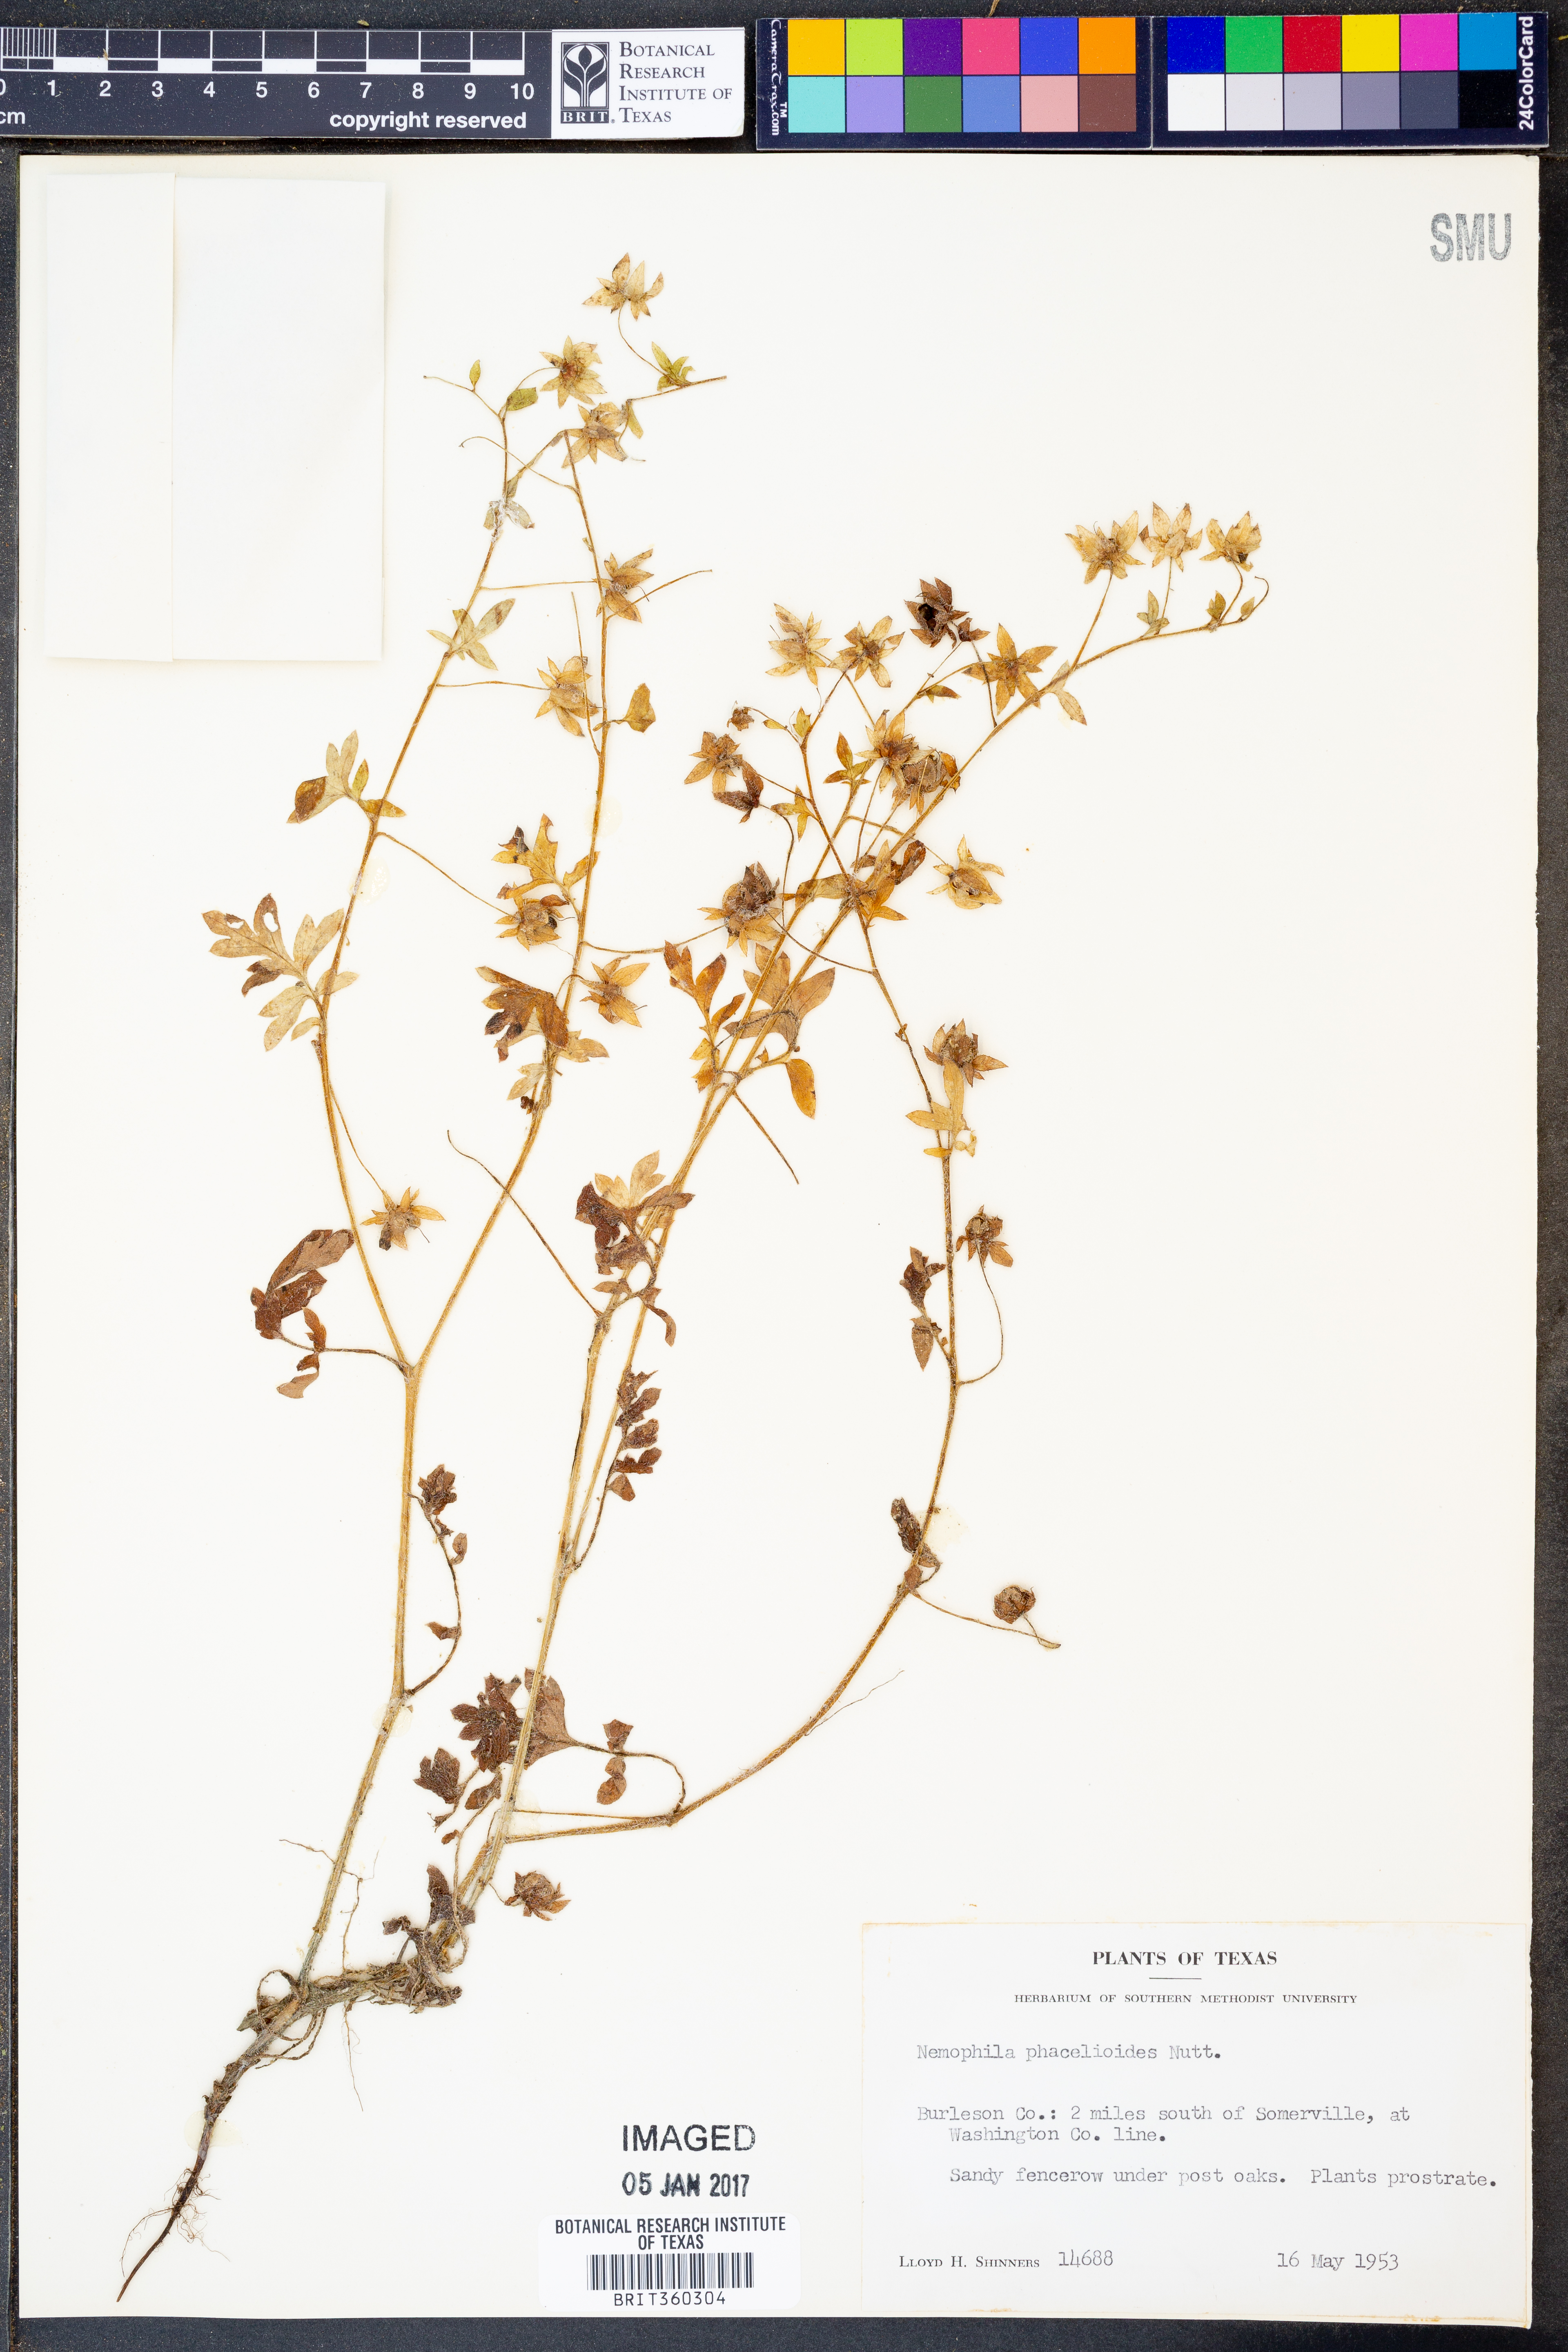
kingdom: Plantae
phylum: Tracheophyta
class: Magnoliopsida
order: Boraginales
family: Hydrophyllaceae
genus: Nemophila
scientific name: Nemophila phacelioides
